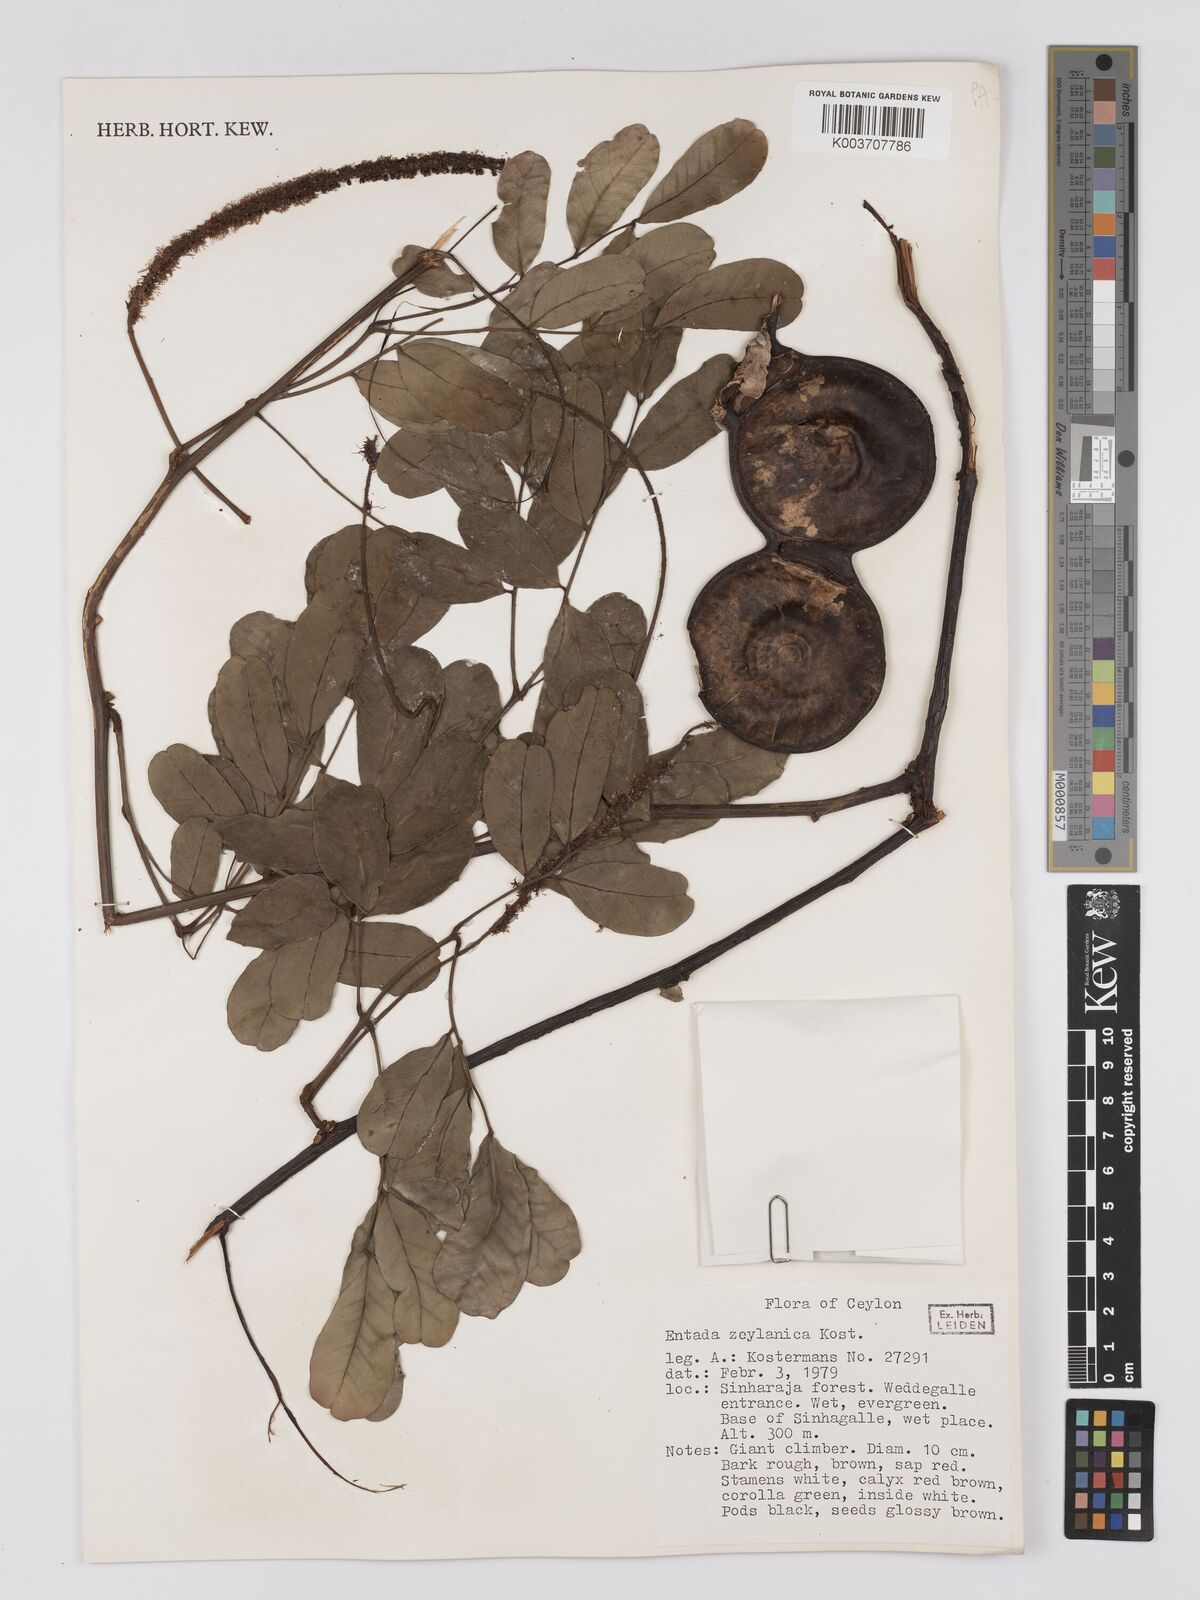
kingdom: Plantae
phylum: Tracheophyta
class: Magnoliopsida
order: Fabales
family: Fabaceae
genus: Entada
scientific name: Entada zeylanica
